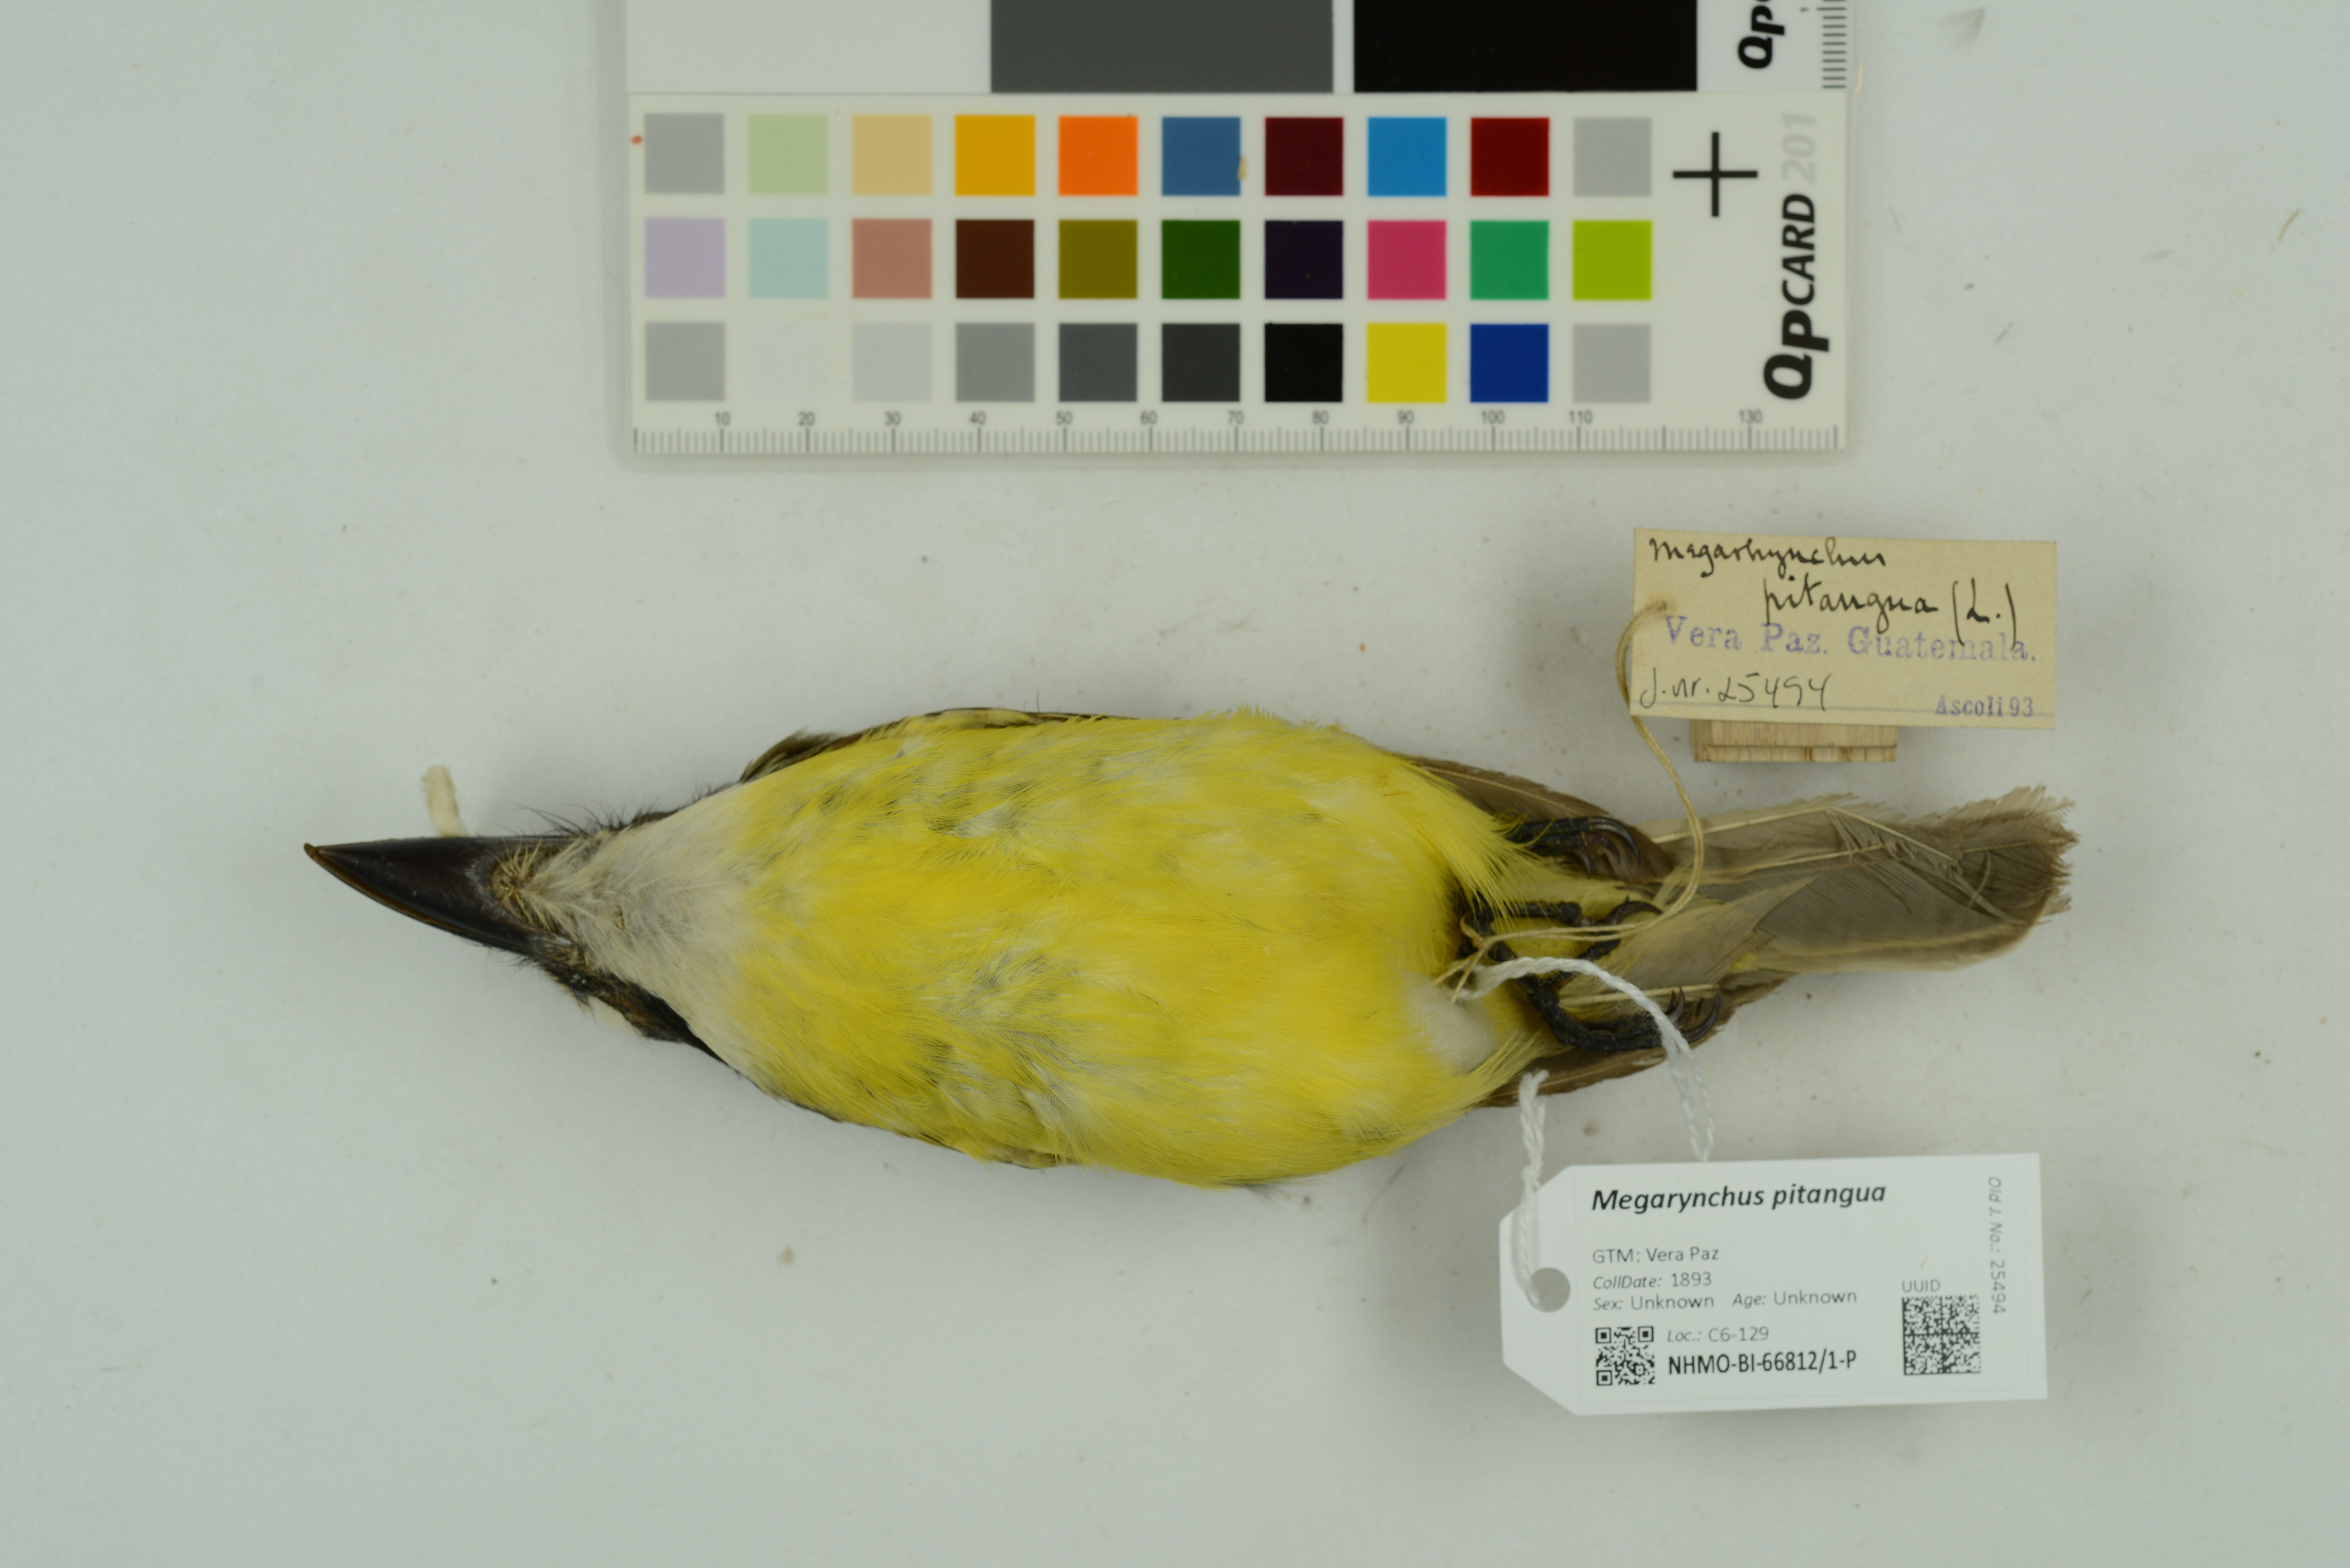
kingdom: Animalia
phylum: Chordata
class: Aves
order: Passeriformes
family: Tyrannidae
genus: Megarynchus
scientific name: Megarynchus pitangua
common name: Boat-billed flycatcher
